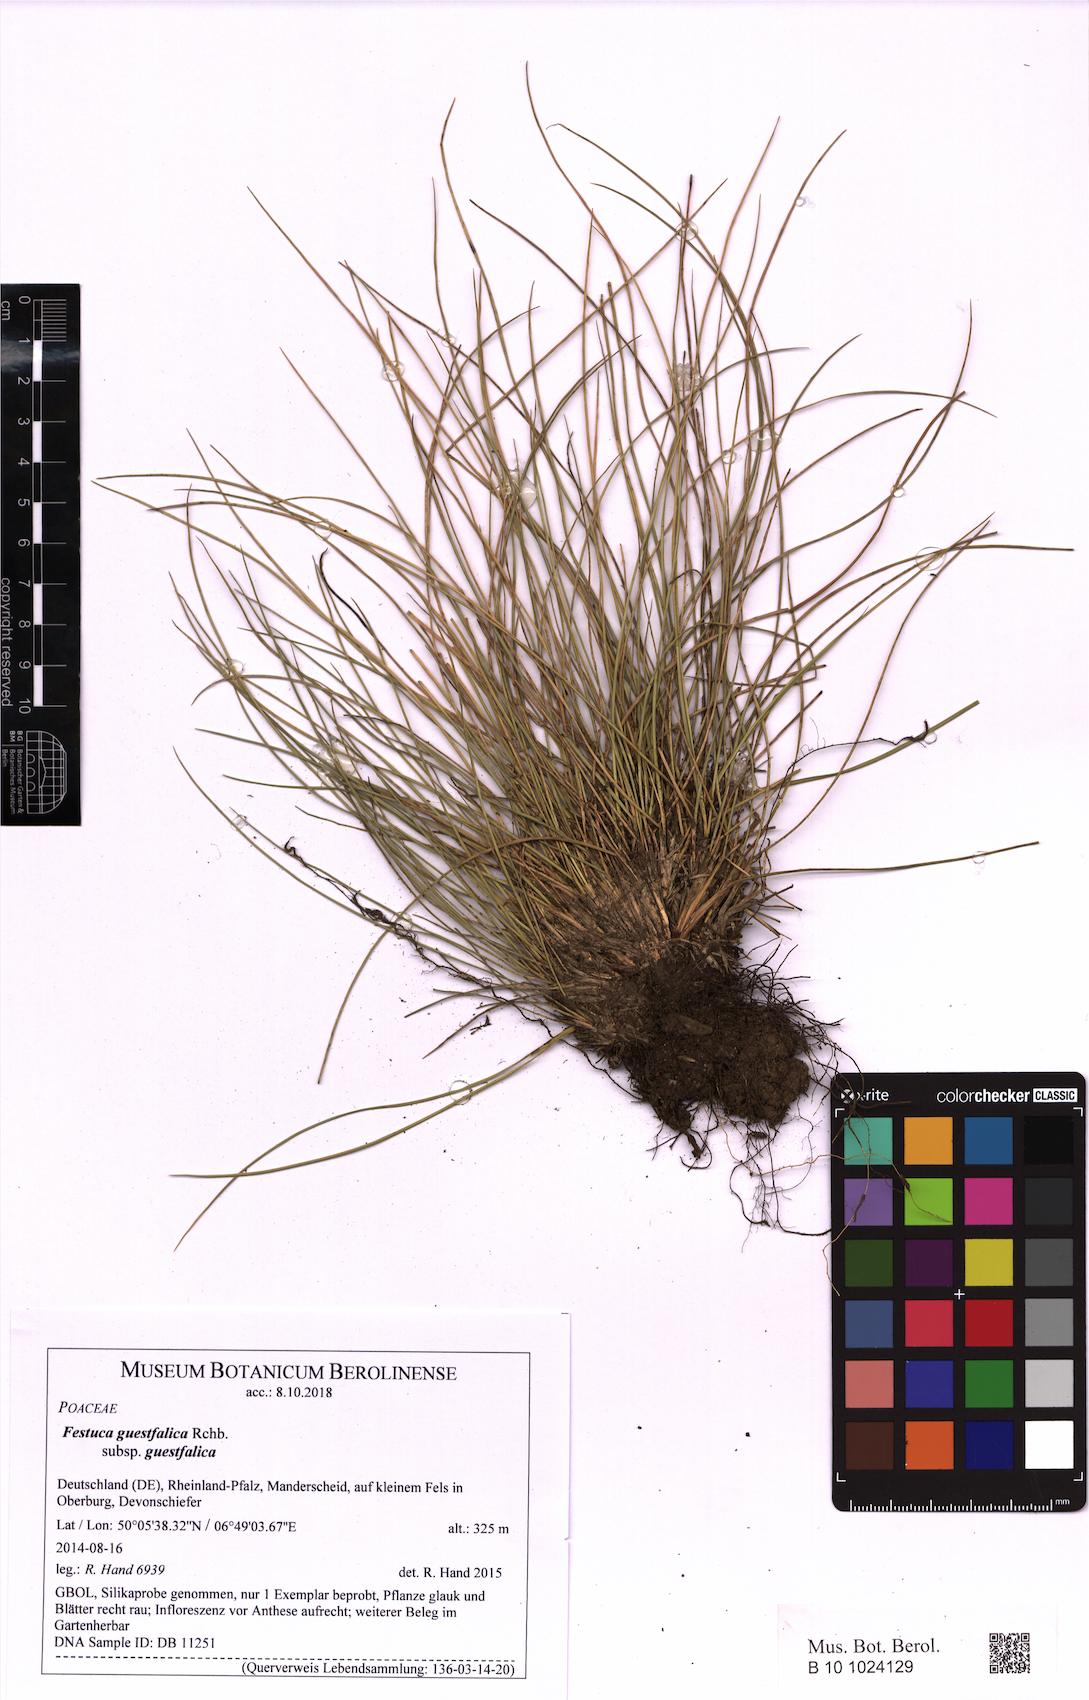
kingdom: Plantae
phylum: Tracheophyta
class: Liliopsida
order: Poales
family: Poaceae
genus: Festuca
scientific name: Festuca guestfalica
